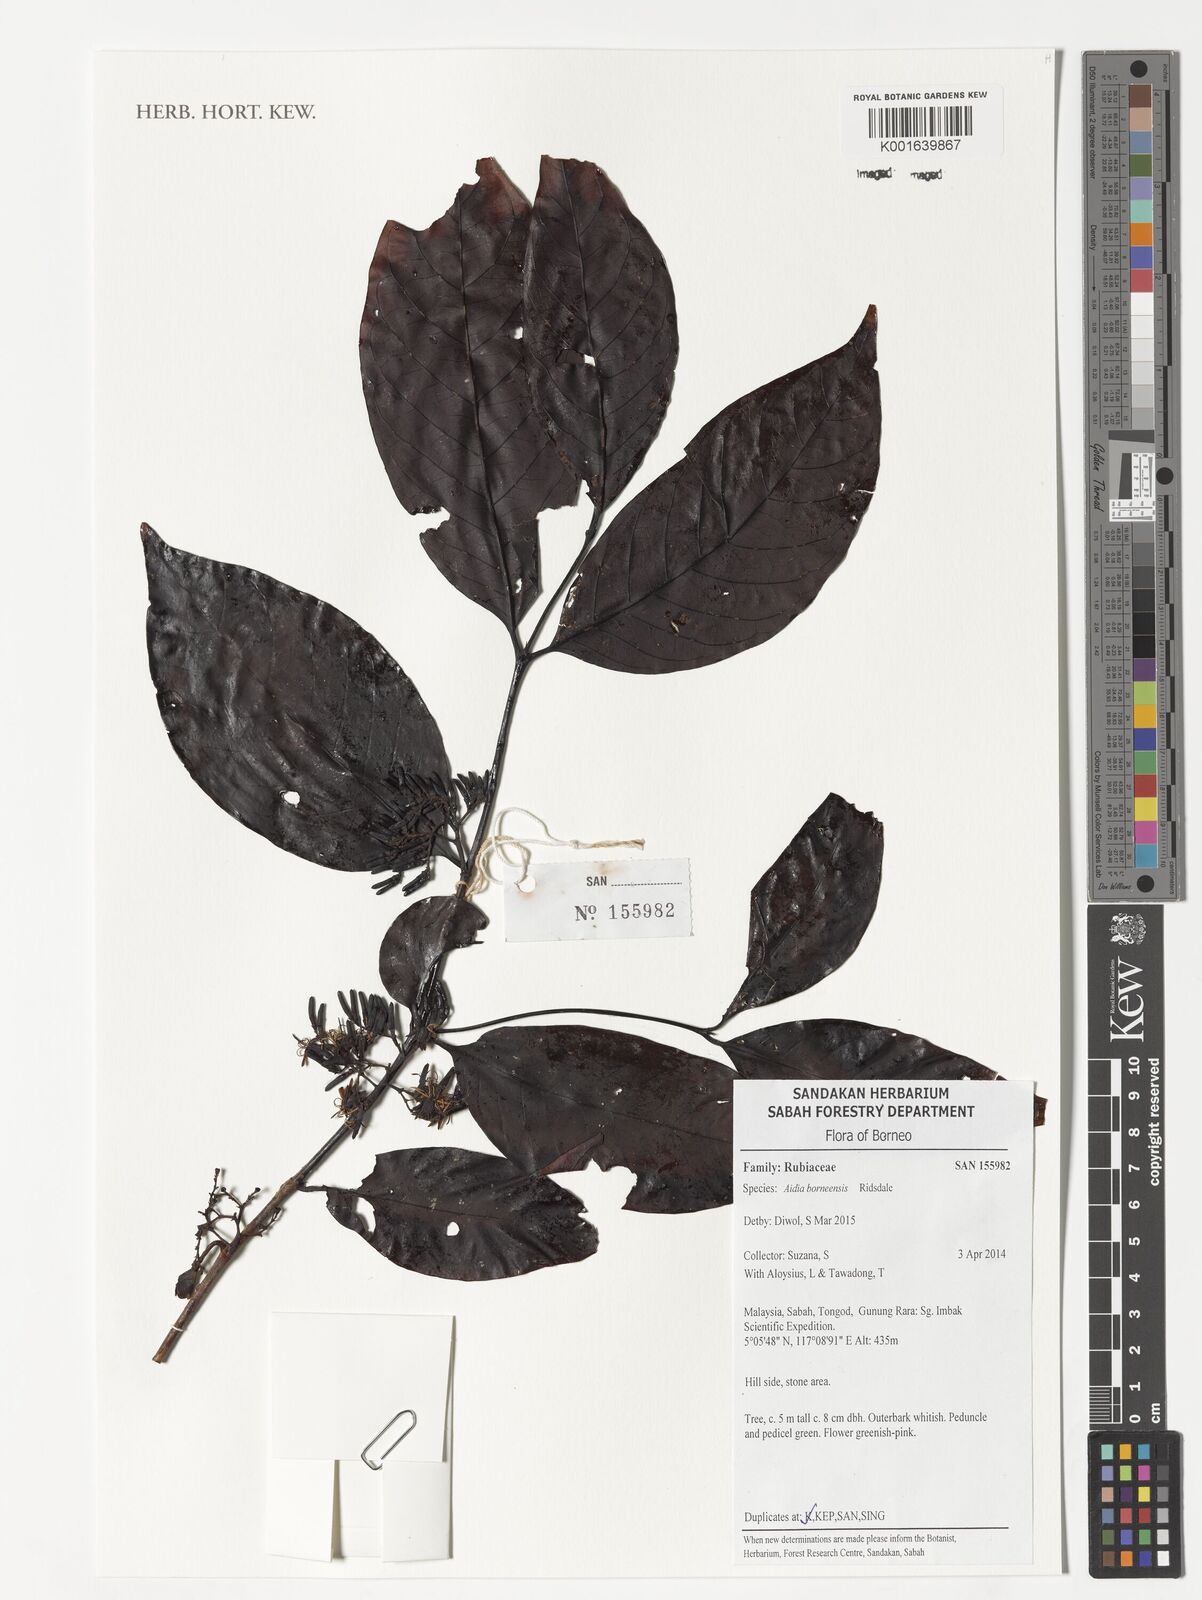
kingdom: Plantae
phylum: Tracheophyta
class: Magnoliopsida
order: Gentianales
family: Rubiaceae
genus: Aidia
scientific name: Aidia borneensis
